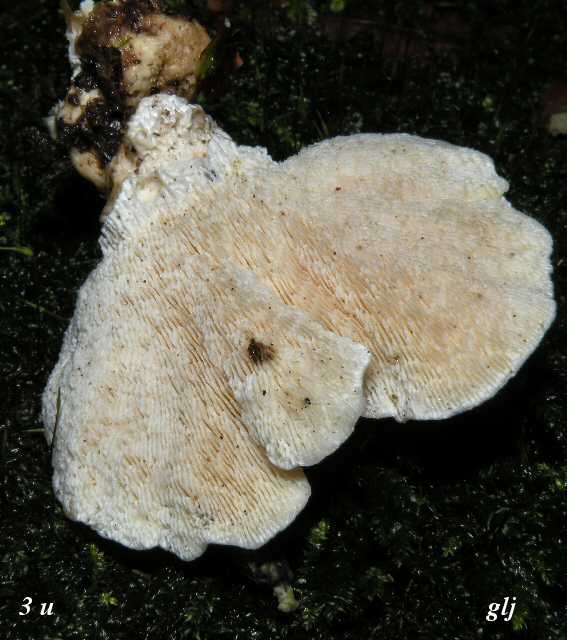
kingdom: Fungi
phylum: Basidiomycota
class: Agaricomycetes
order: Polyporales
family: Polyporaceae
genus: Trametes
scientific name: Trametes gibbosa
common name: puklet læderporesvamp
